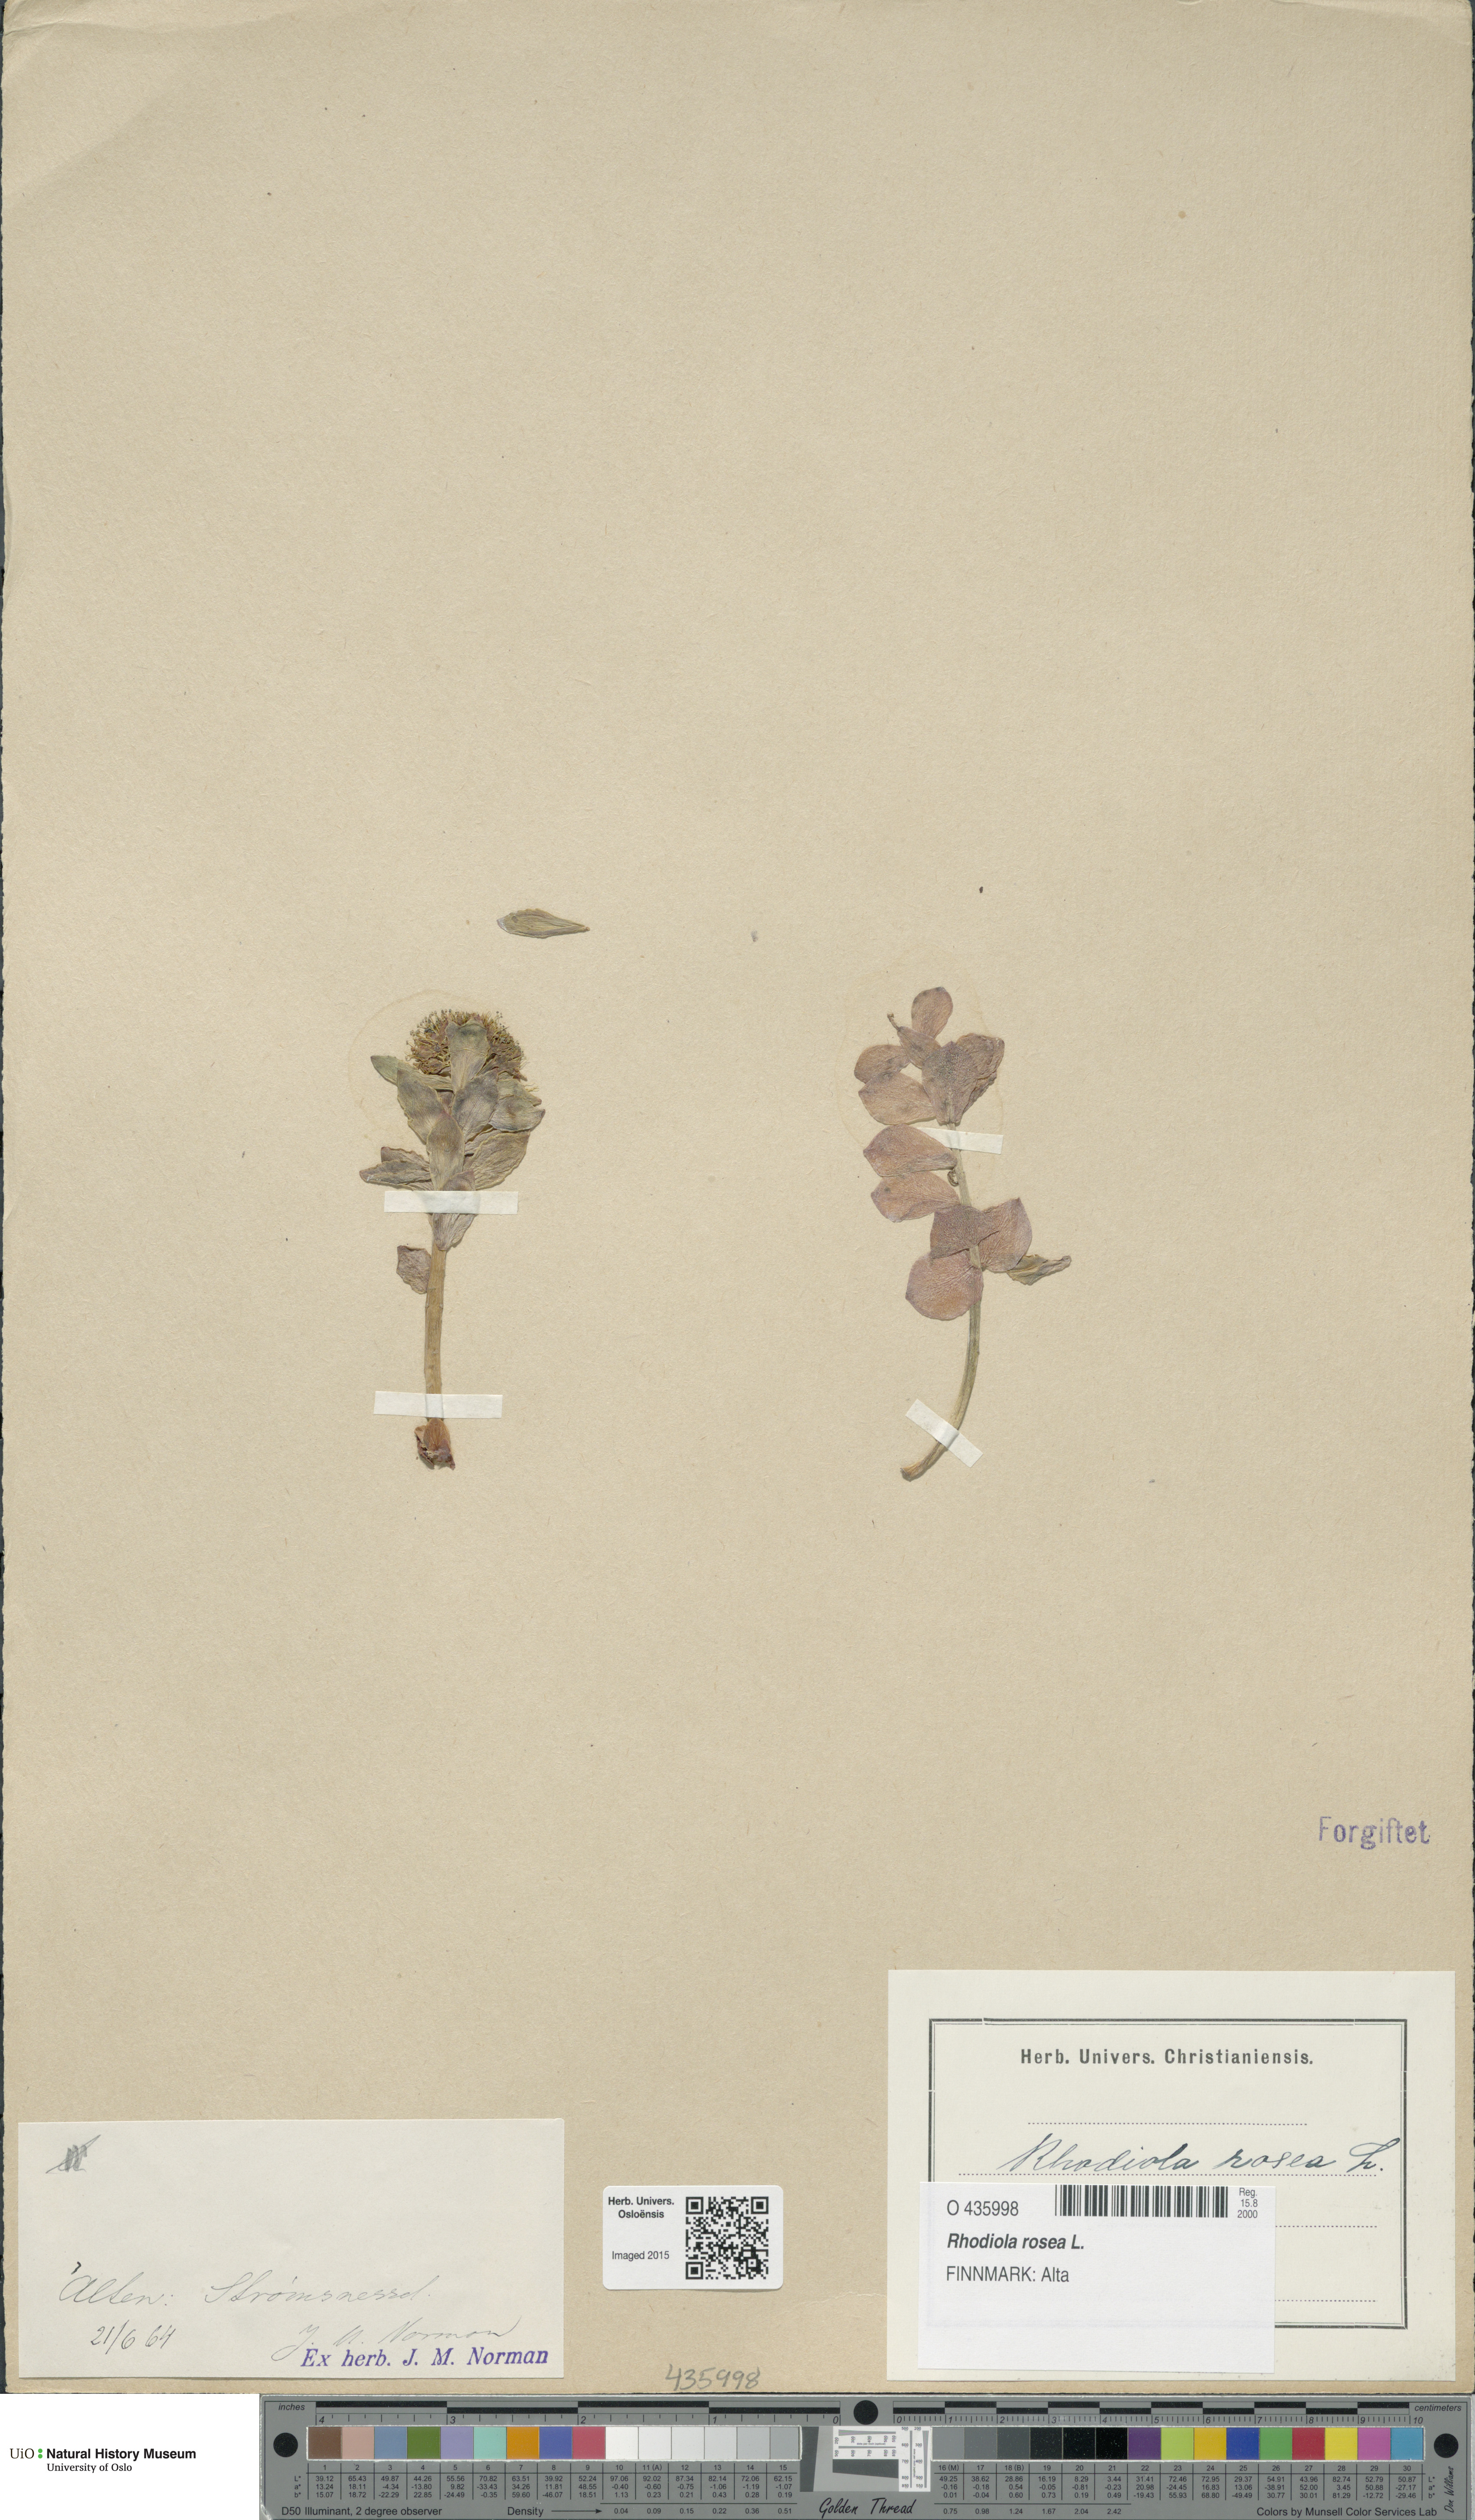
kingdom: Plantae
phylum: Tracheophyta
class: Magnoliopsida
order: Saxifragales
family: Crassulaceae
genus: Rhodiola
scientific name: Rhodiola rosea
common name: Roseroot
